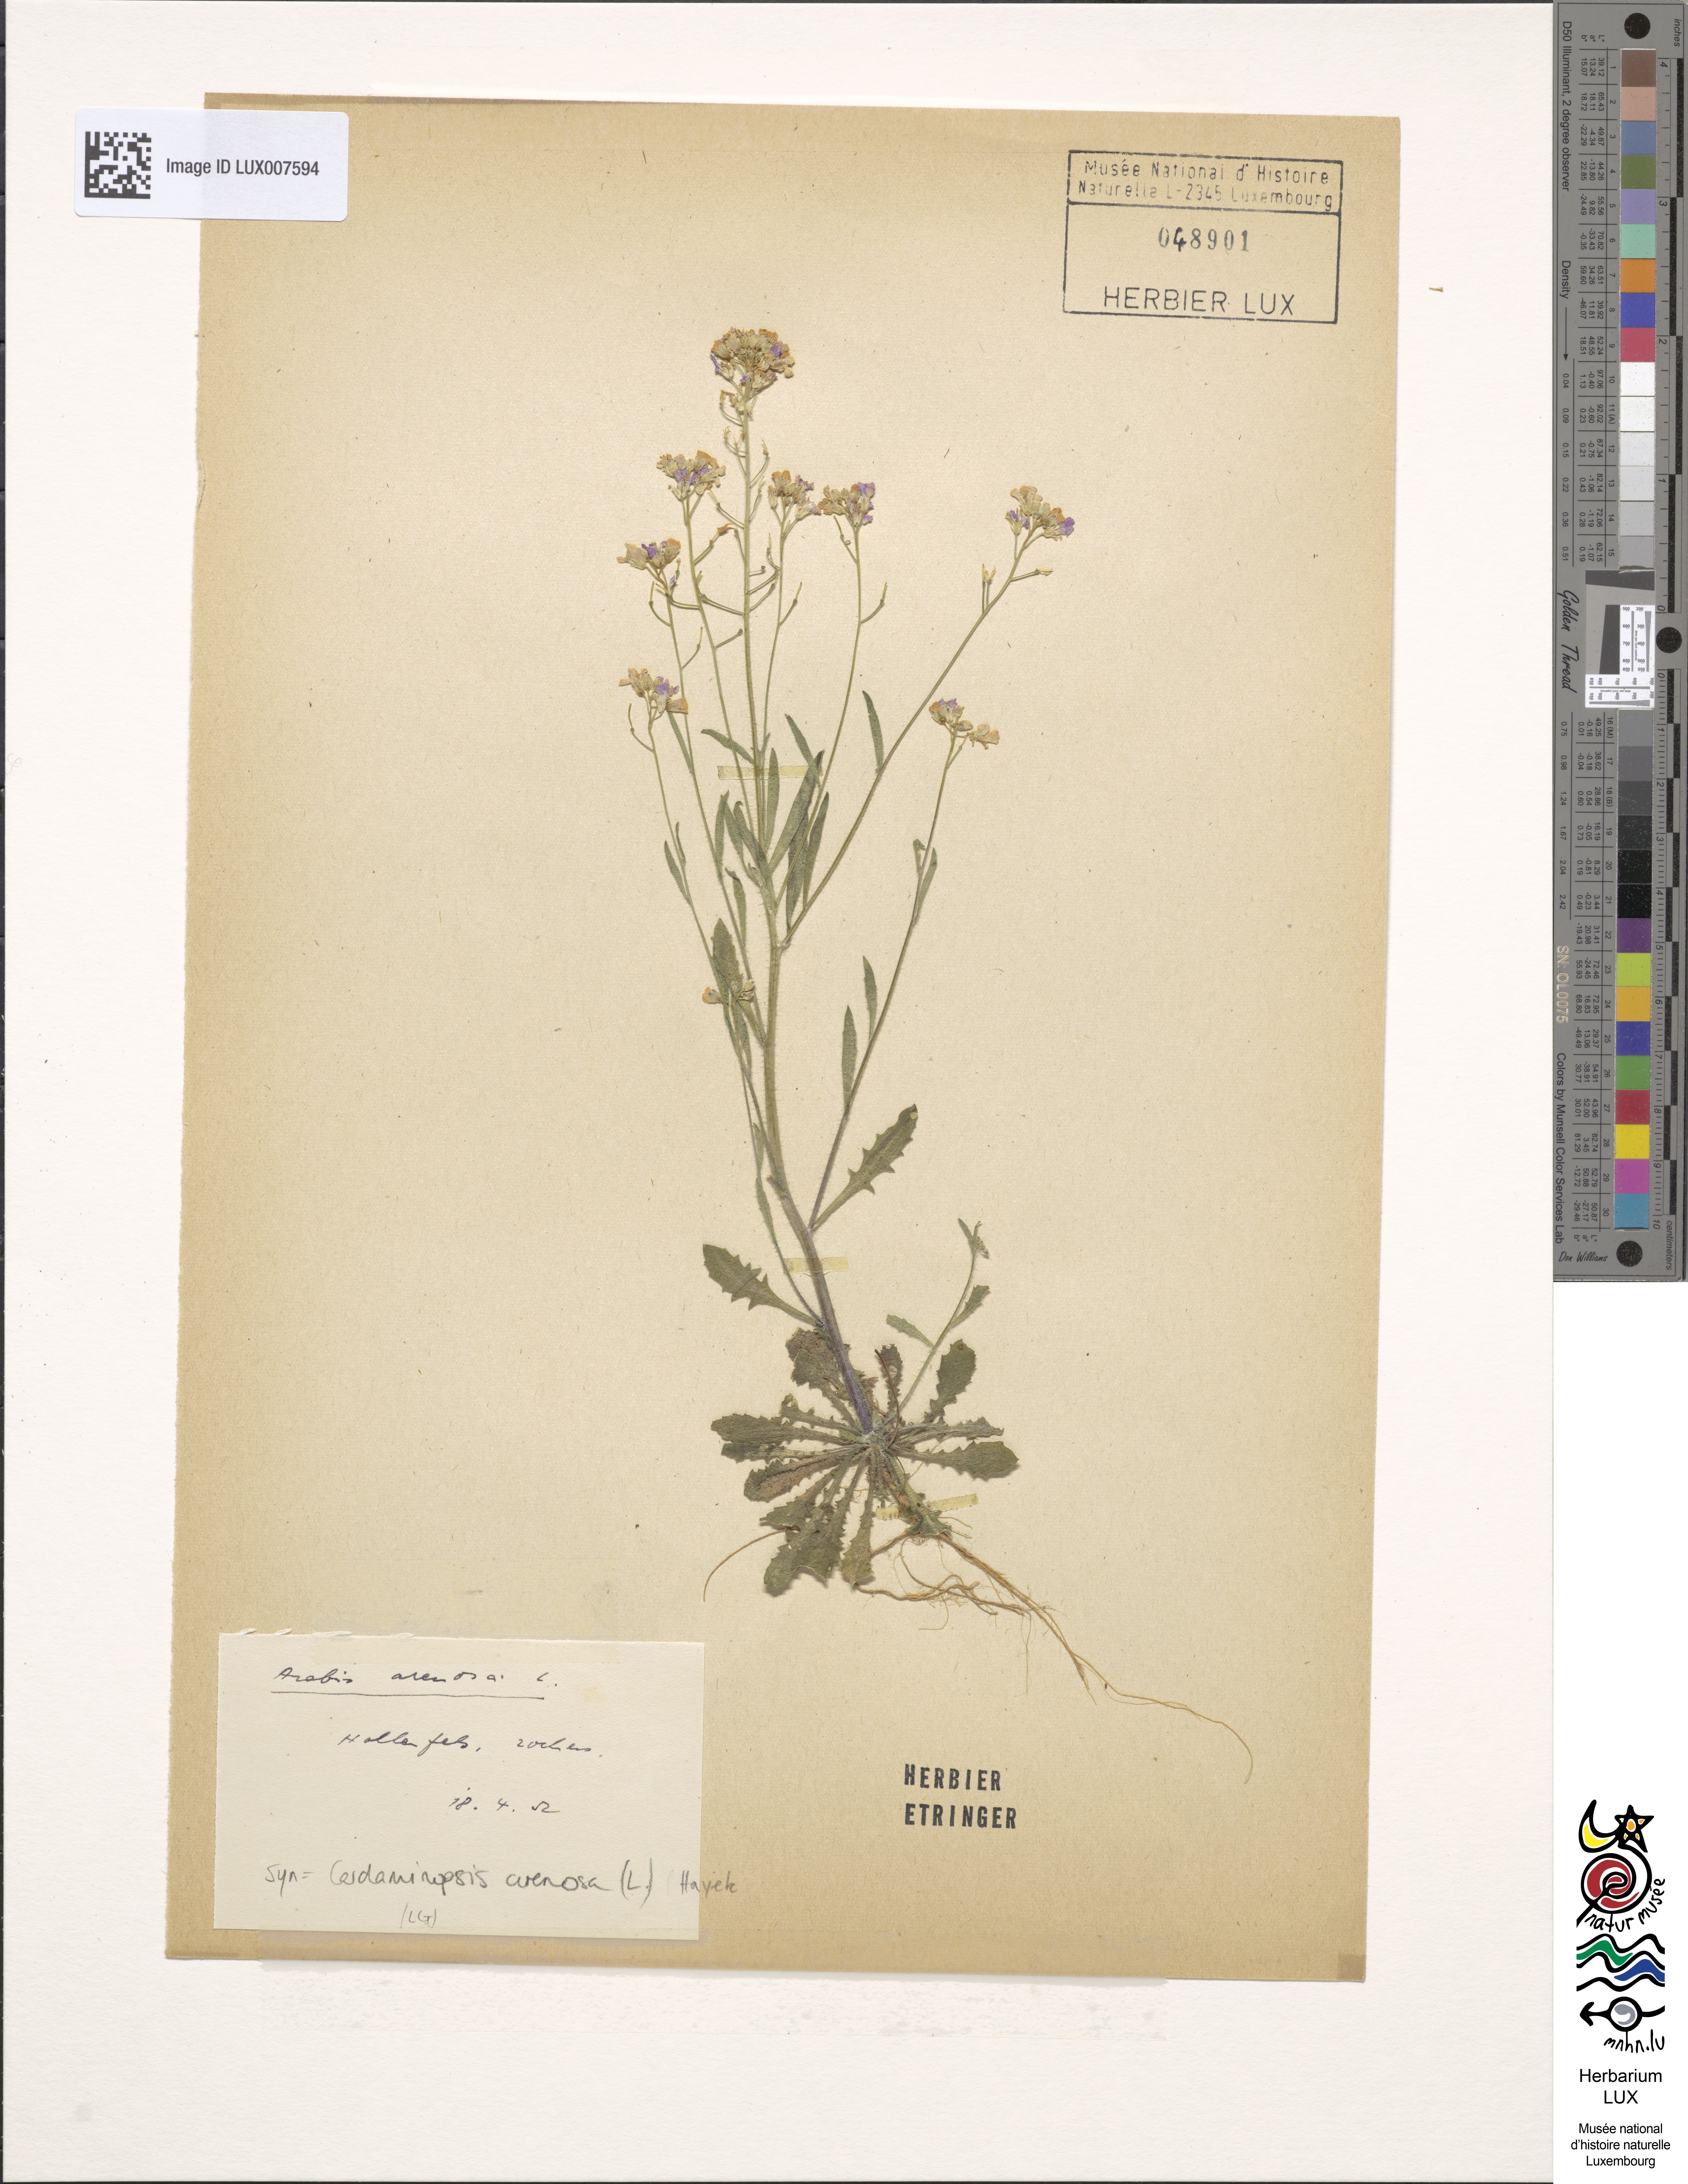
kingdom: Plantae
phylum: Tracheophyta
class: Magnoliopsida
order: Brassicales
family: Brassicaceae
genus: Arabidopsis
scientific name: Arabidopsis arenosa
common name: Sand rock-cress
